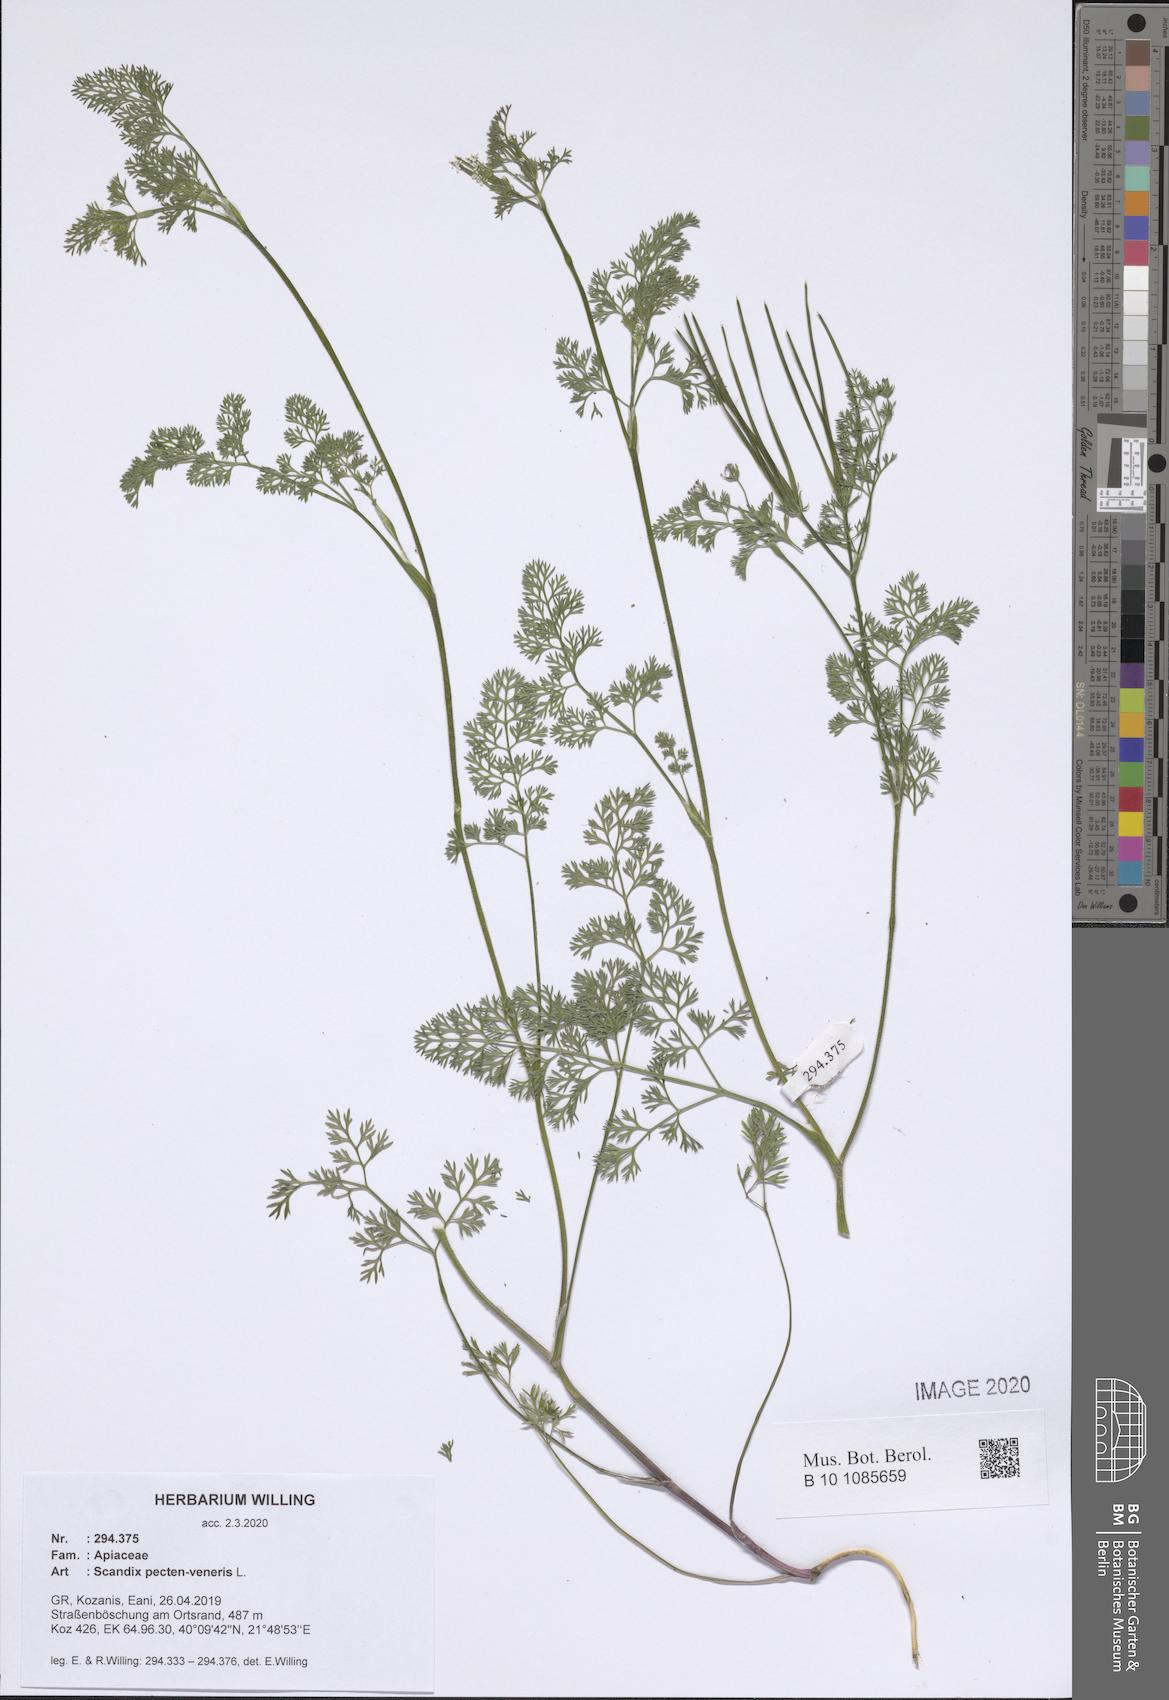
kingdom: Plantae
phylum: Tracheophyta
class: Magnoliopsida
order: Apiales
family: Apiaceae
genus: Scandix
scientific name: Scandix pecten-veneris
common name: Shepherd's-needle
